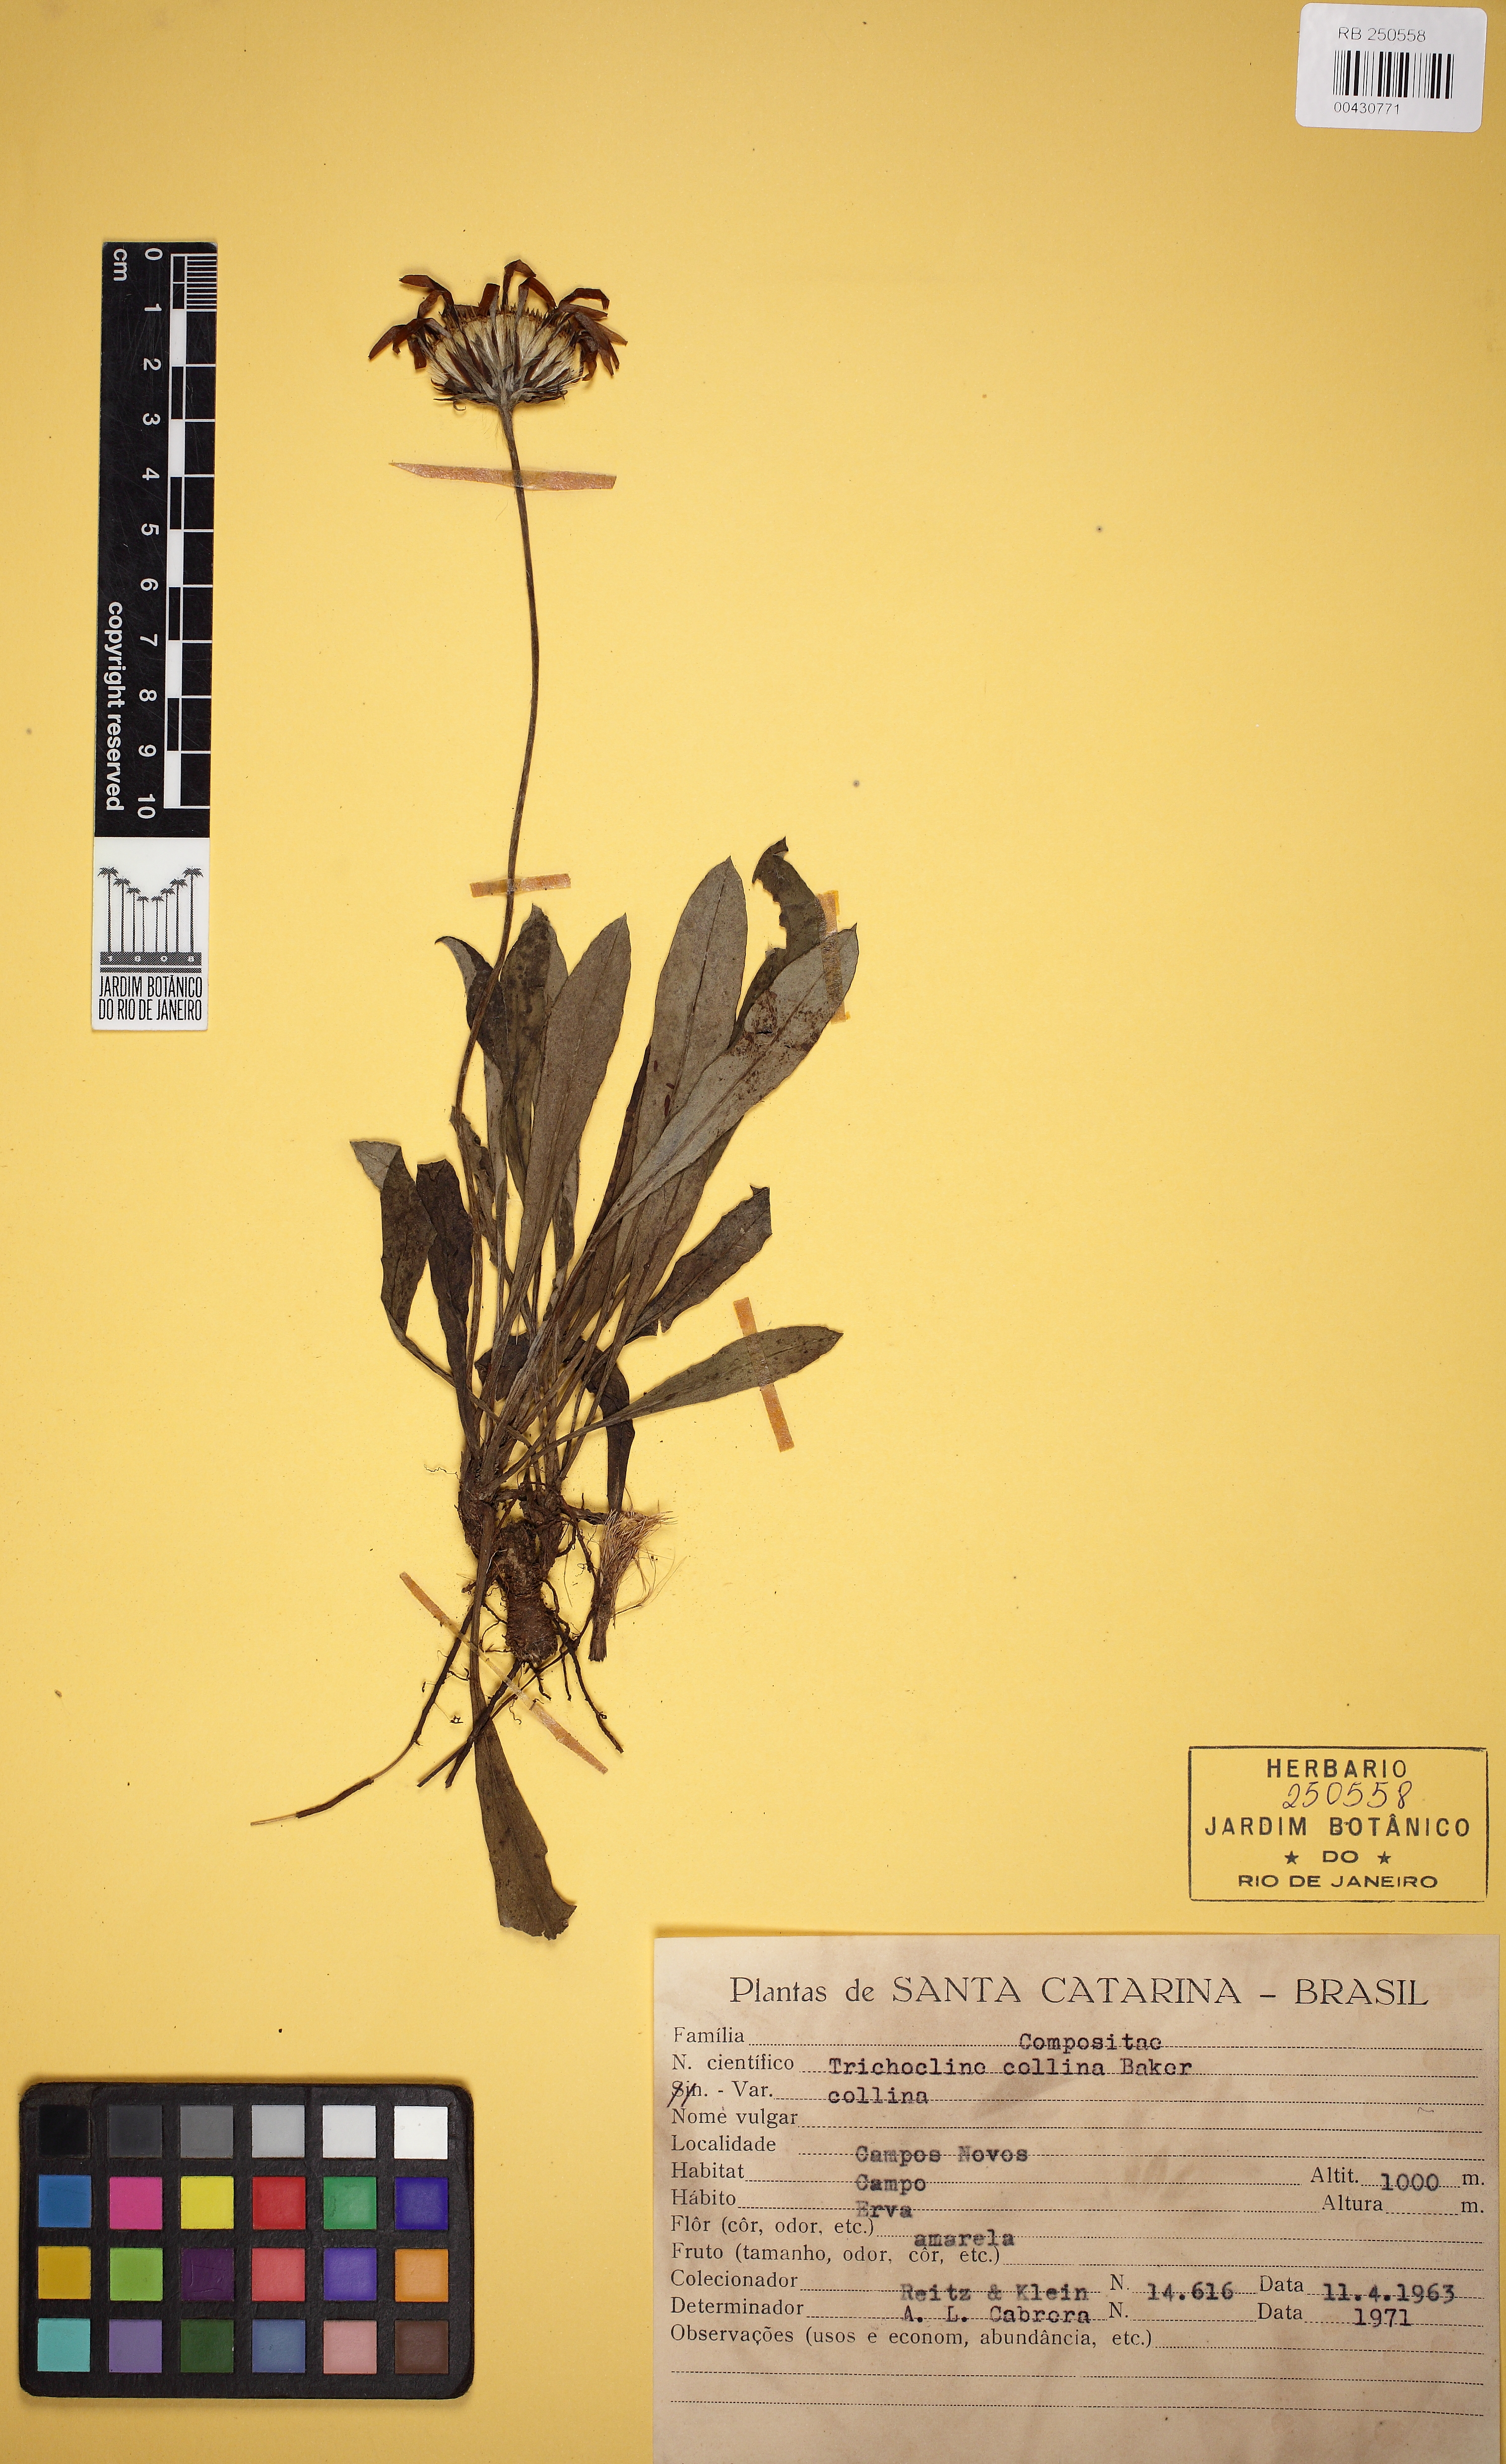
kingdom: Plantae
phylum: Tracheophyta
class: Magnoliopsida
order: Asterales
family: Asteraceae
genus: Trichocline
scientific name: Trichocline catharinensis
